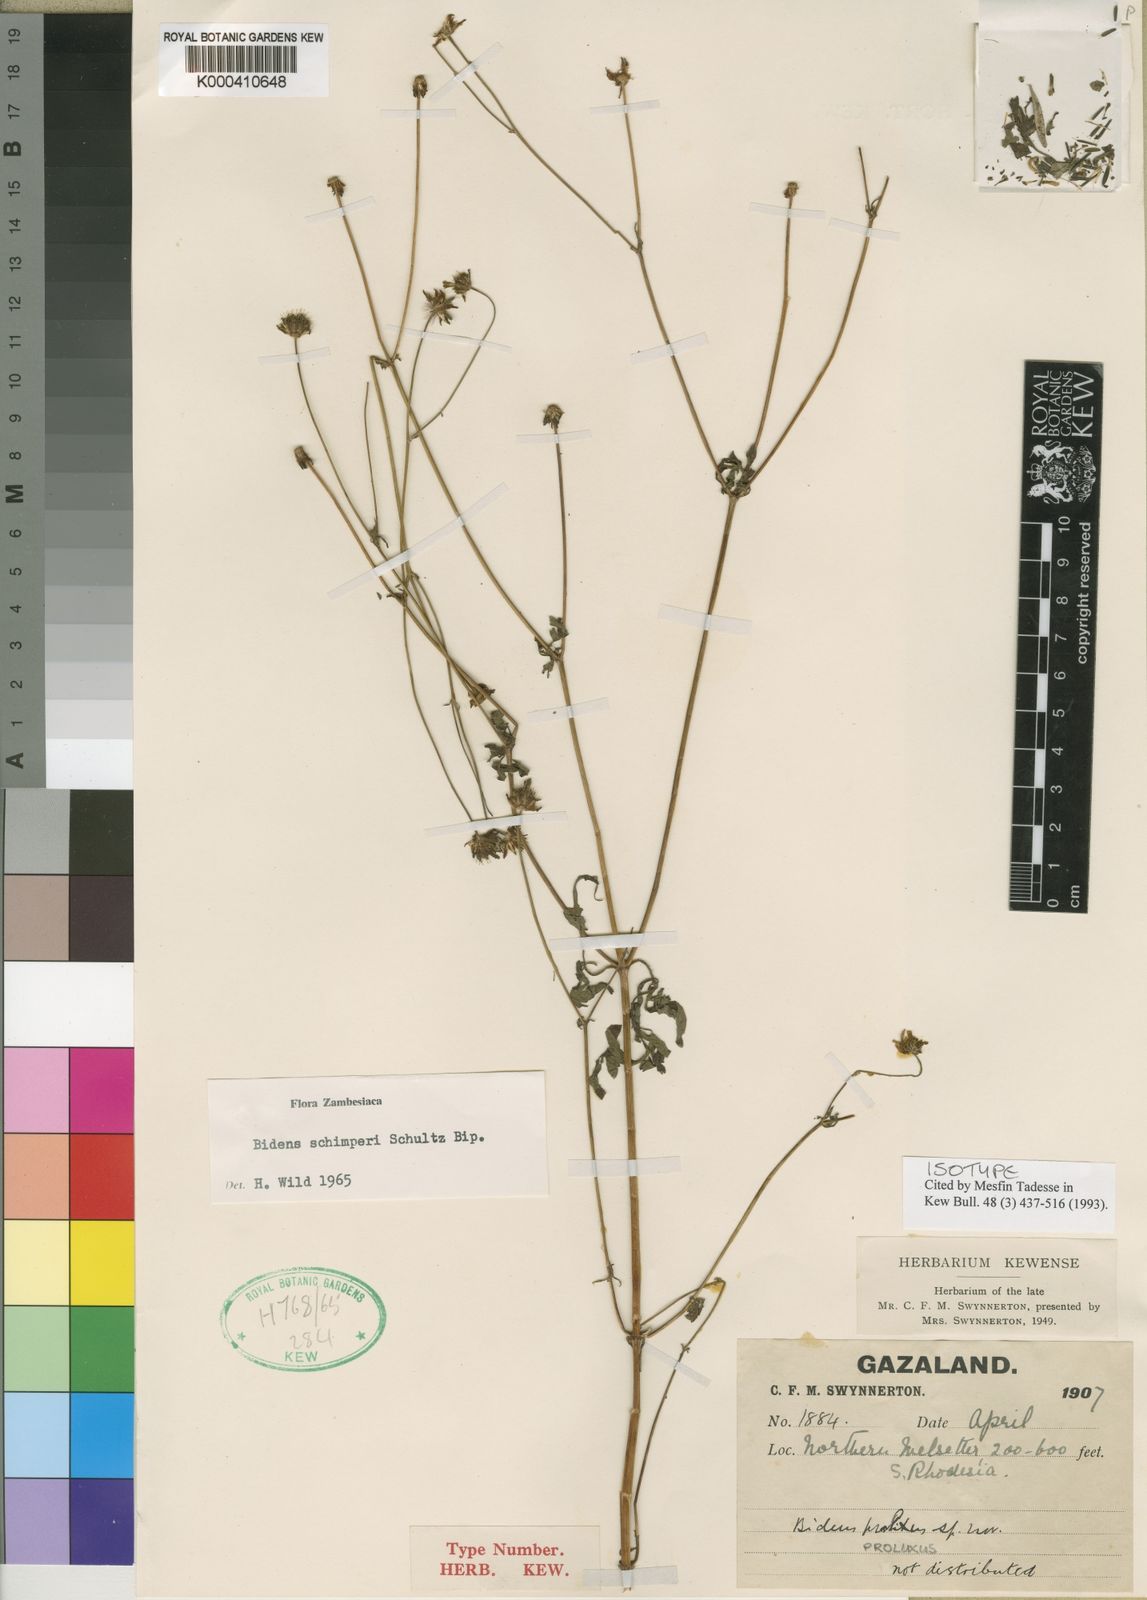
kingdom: Plantae
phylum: Tracheophyta
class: Magnoliopsida
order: Asterales
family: Asteraceae
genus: Bidens
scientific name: Bidens schimperi
